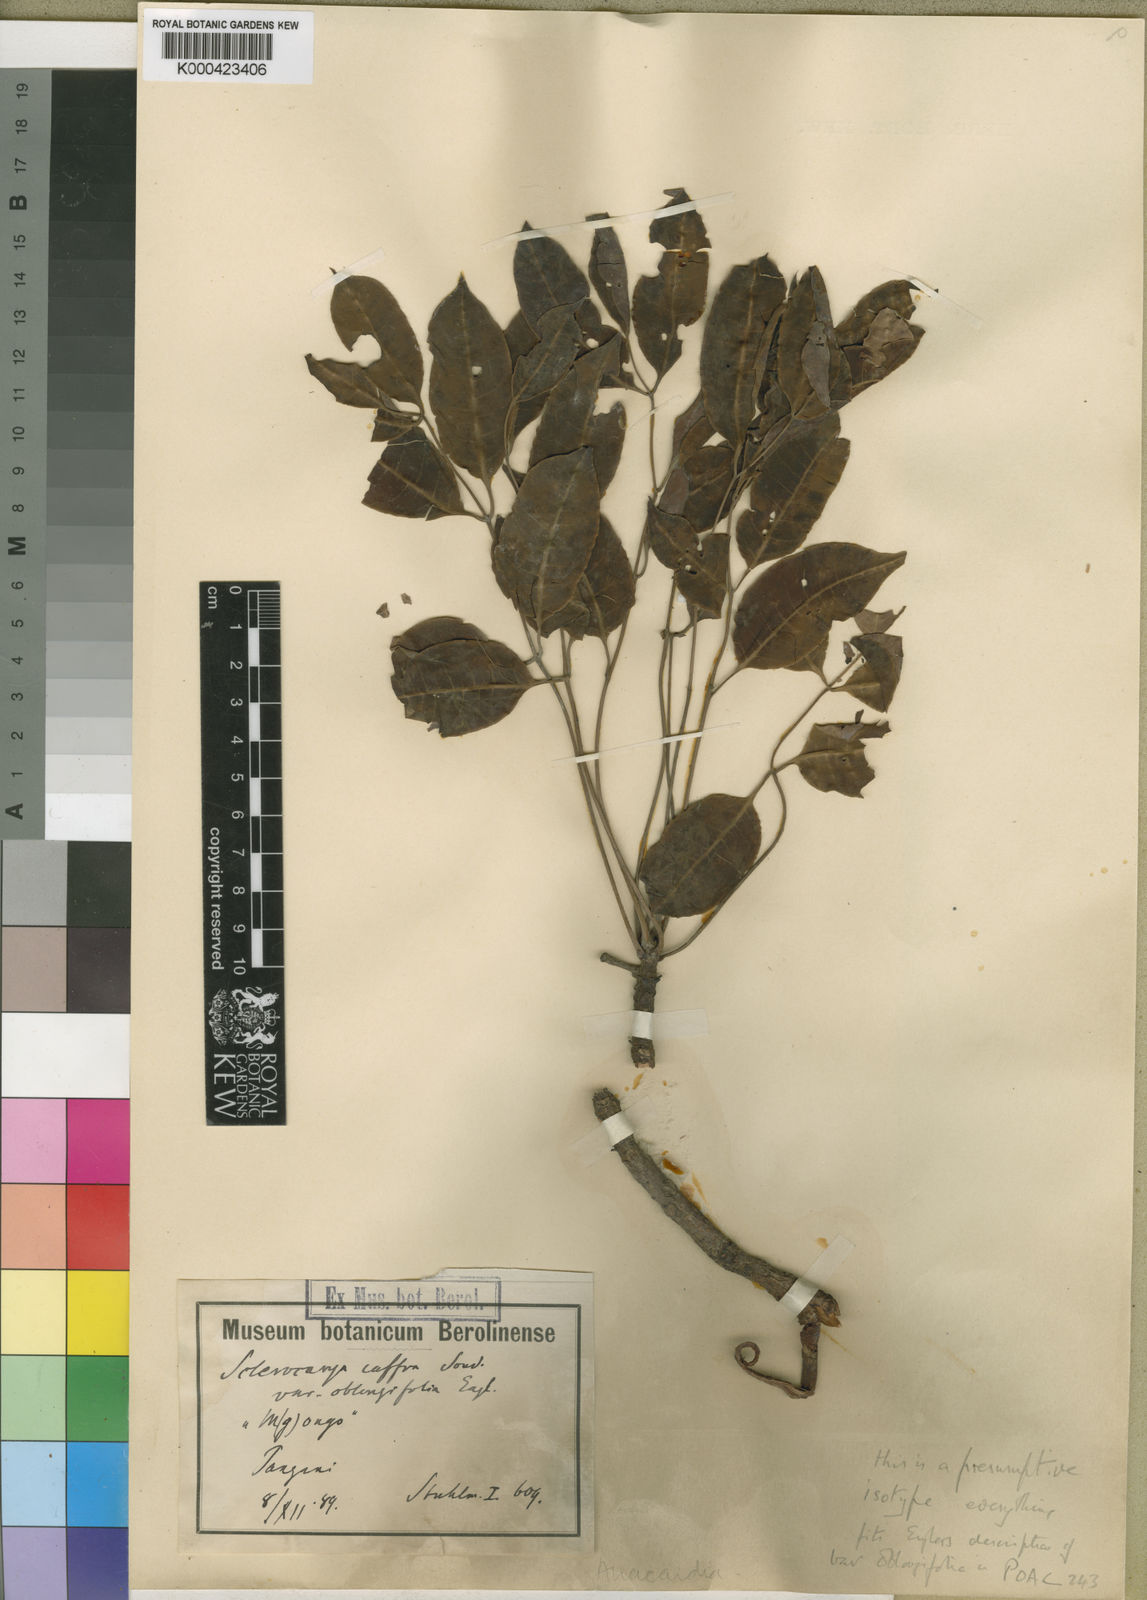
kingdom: Plantae
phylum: Tracheophyta
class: Magnoliopsida
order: Sapindales
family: Anacardiaceae
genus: Sclerocarya
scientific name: Sclerocarya birrea
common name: Marula
